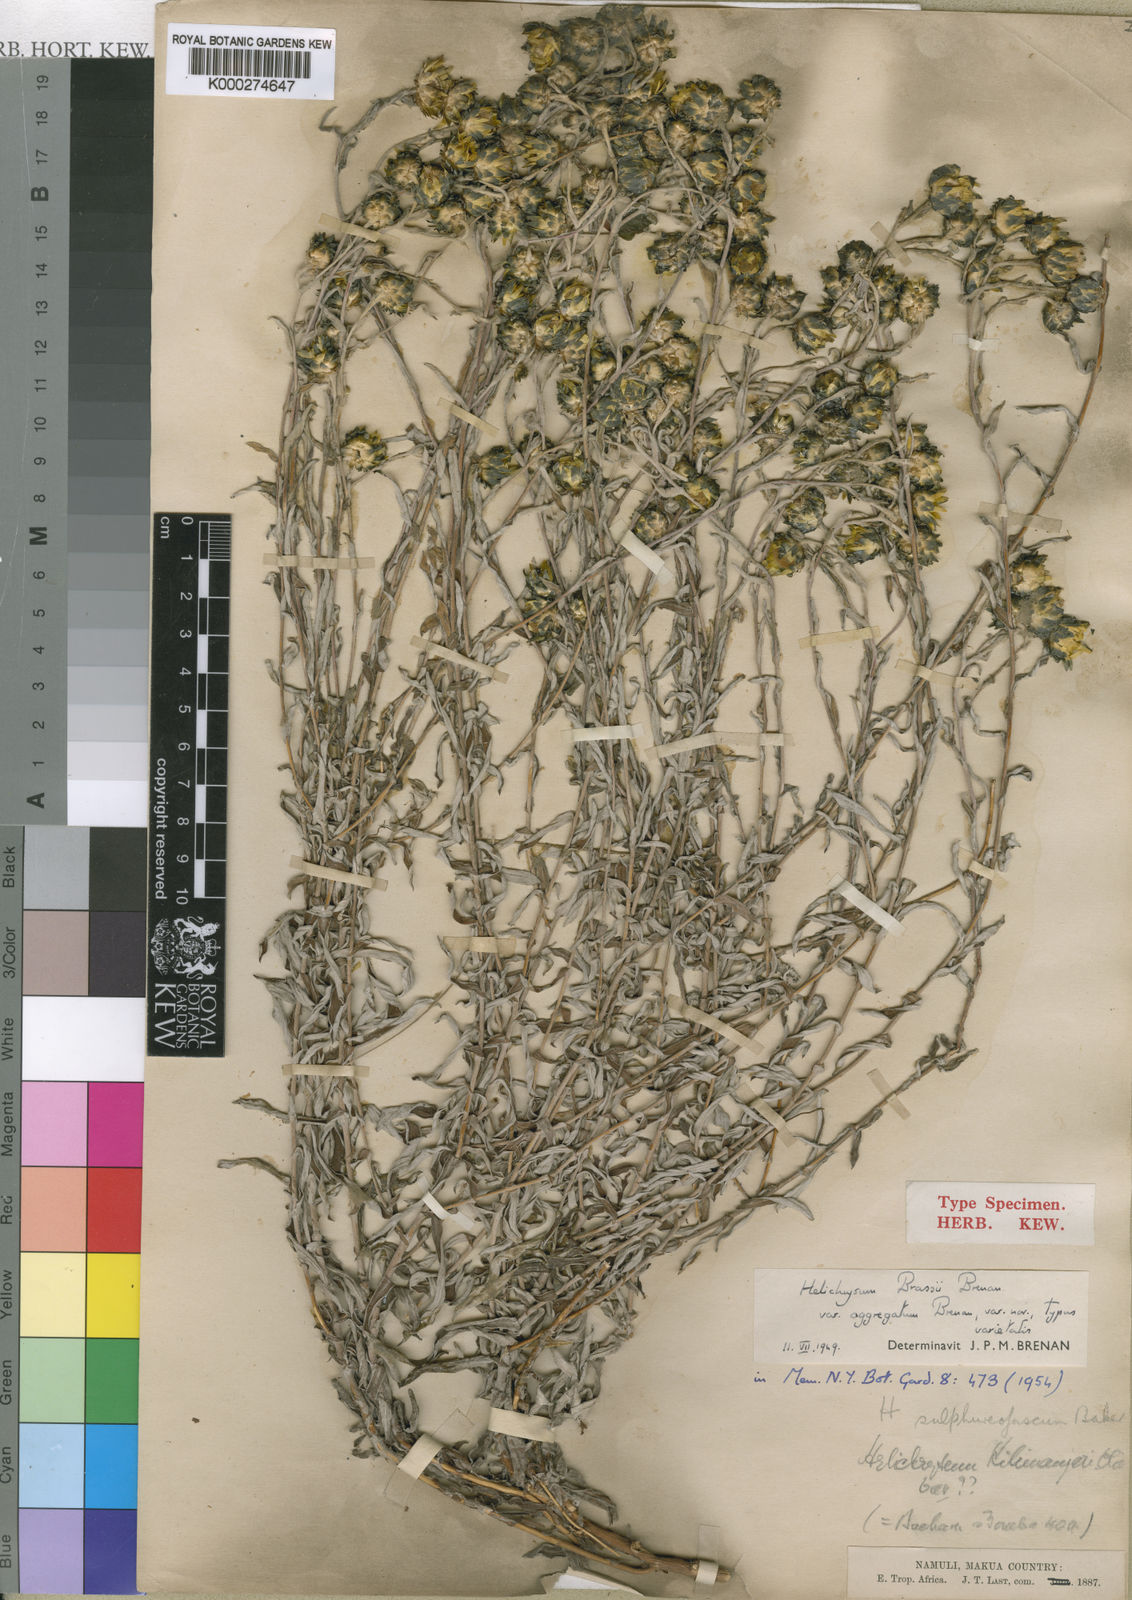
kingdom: Plantae
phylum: Tracheophyta
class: Magnoliopsida
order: Asterales
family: Asteraceae
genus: Helichrysum
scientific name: Helichrysum brassii
